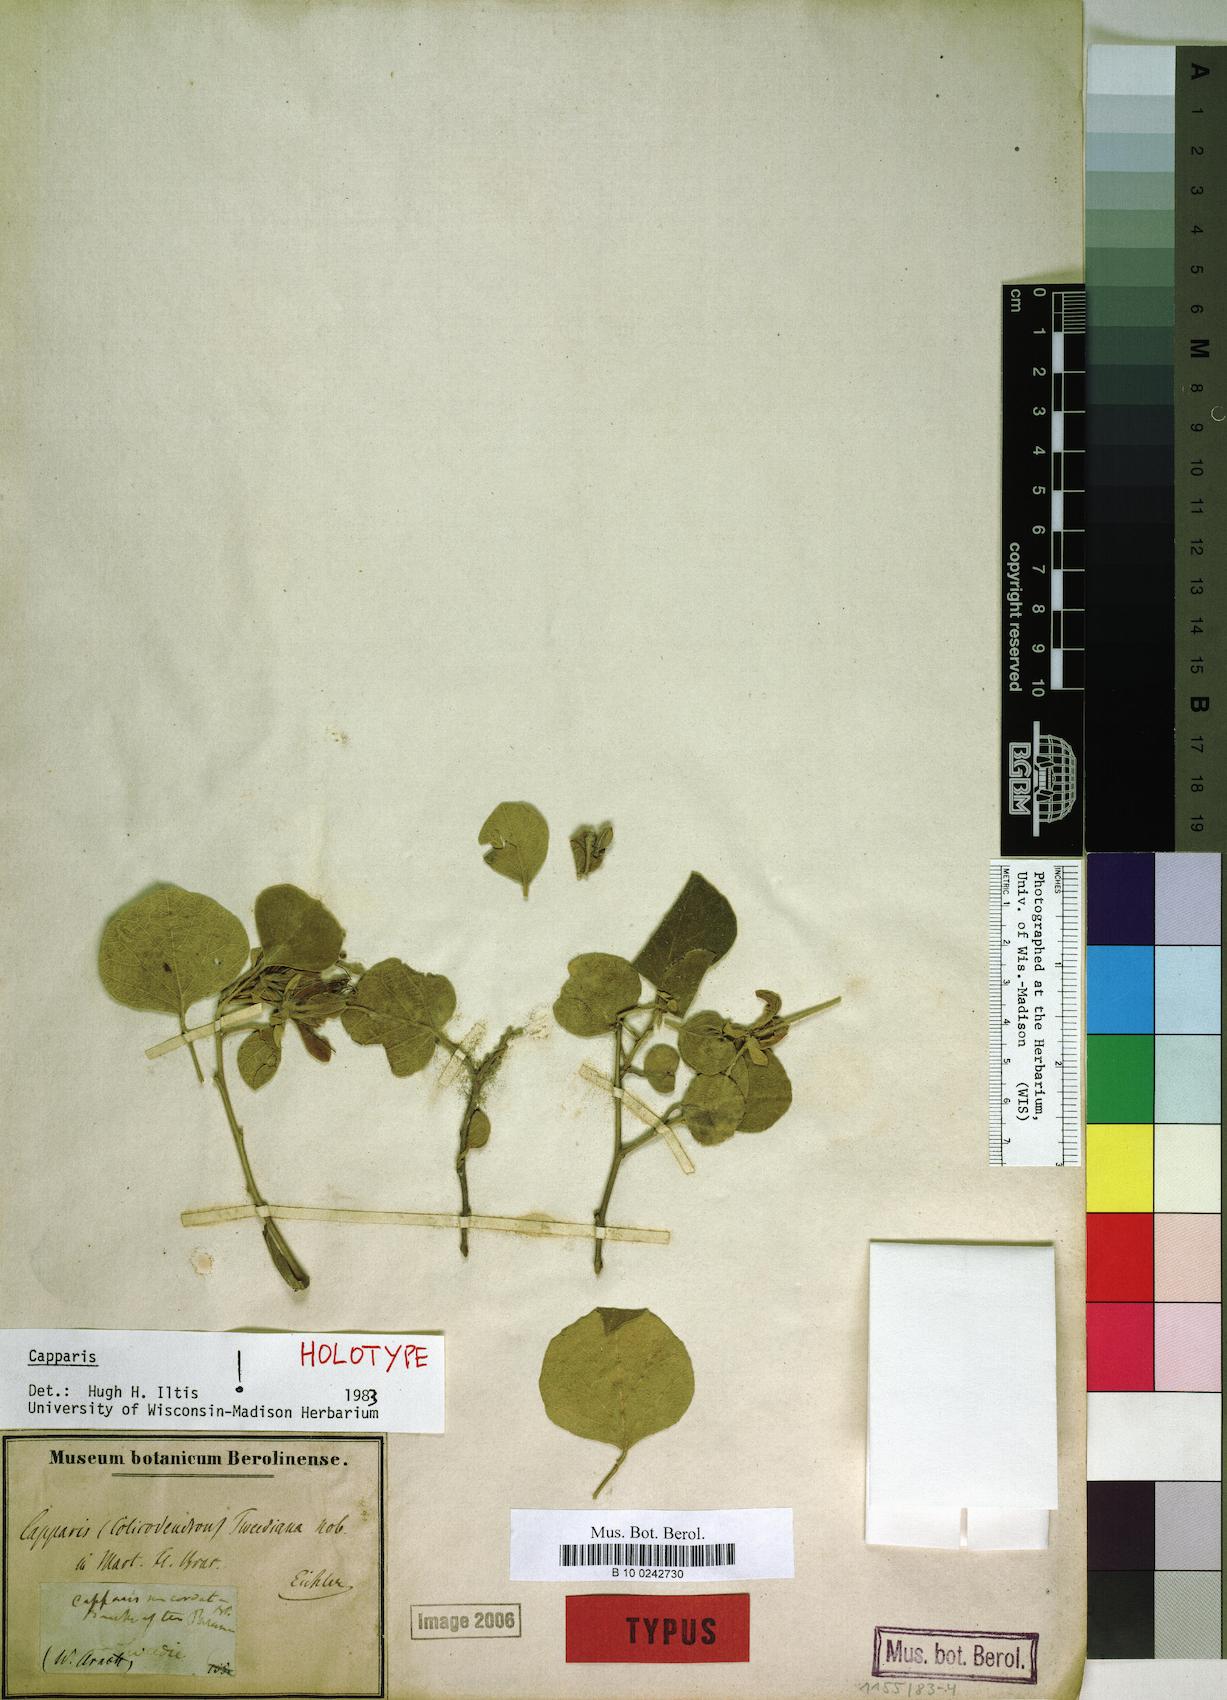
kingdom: Plantae
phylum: Tracheophyta
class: Magnoliopsida
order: Brassicales
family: Capparaceae
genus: Capparicordis
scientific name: Capparicordis tweediana
